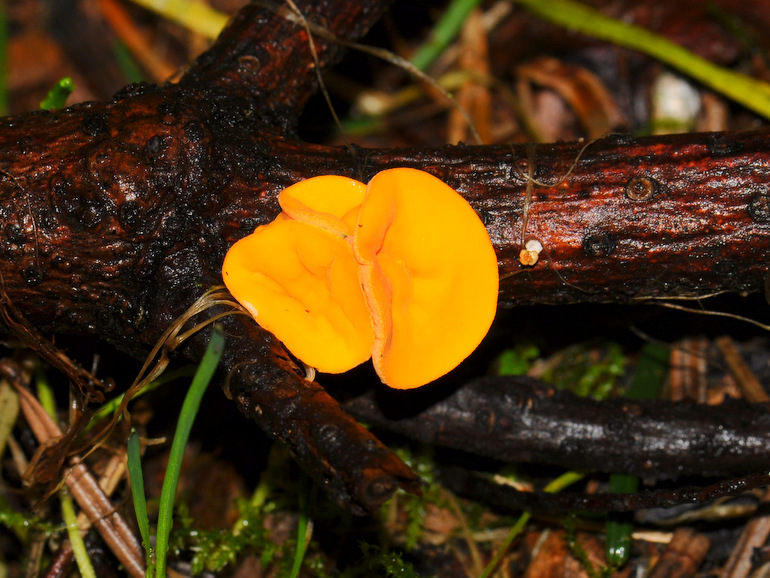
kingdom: Fungi
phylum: Ascomycota
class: Pezizomycetes
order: Pezizales
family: Sarcoscyphaceae
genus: Pithya
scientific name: Pithya vulgaris
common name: stor dukatbæger
